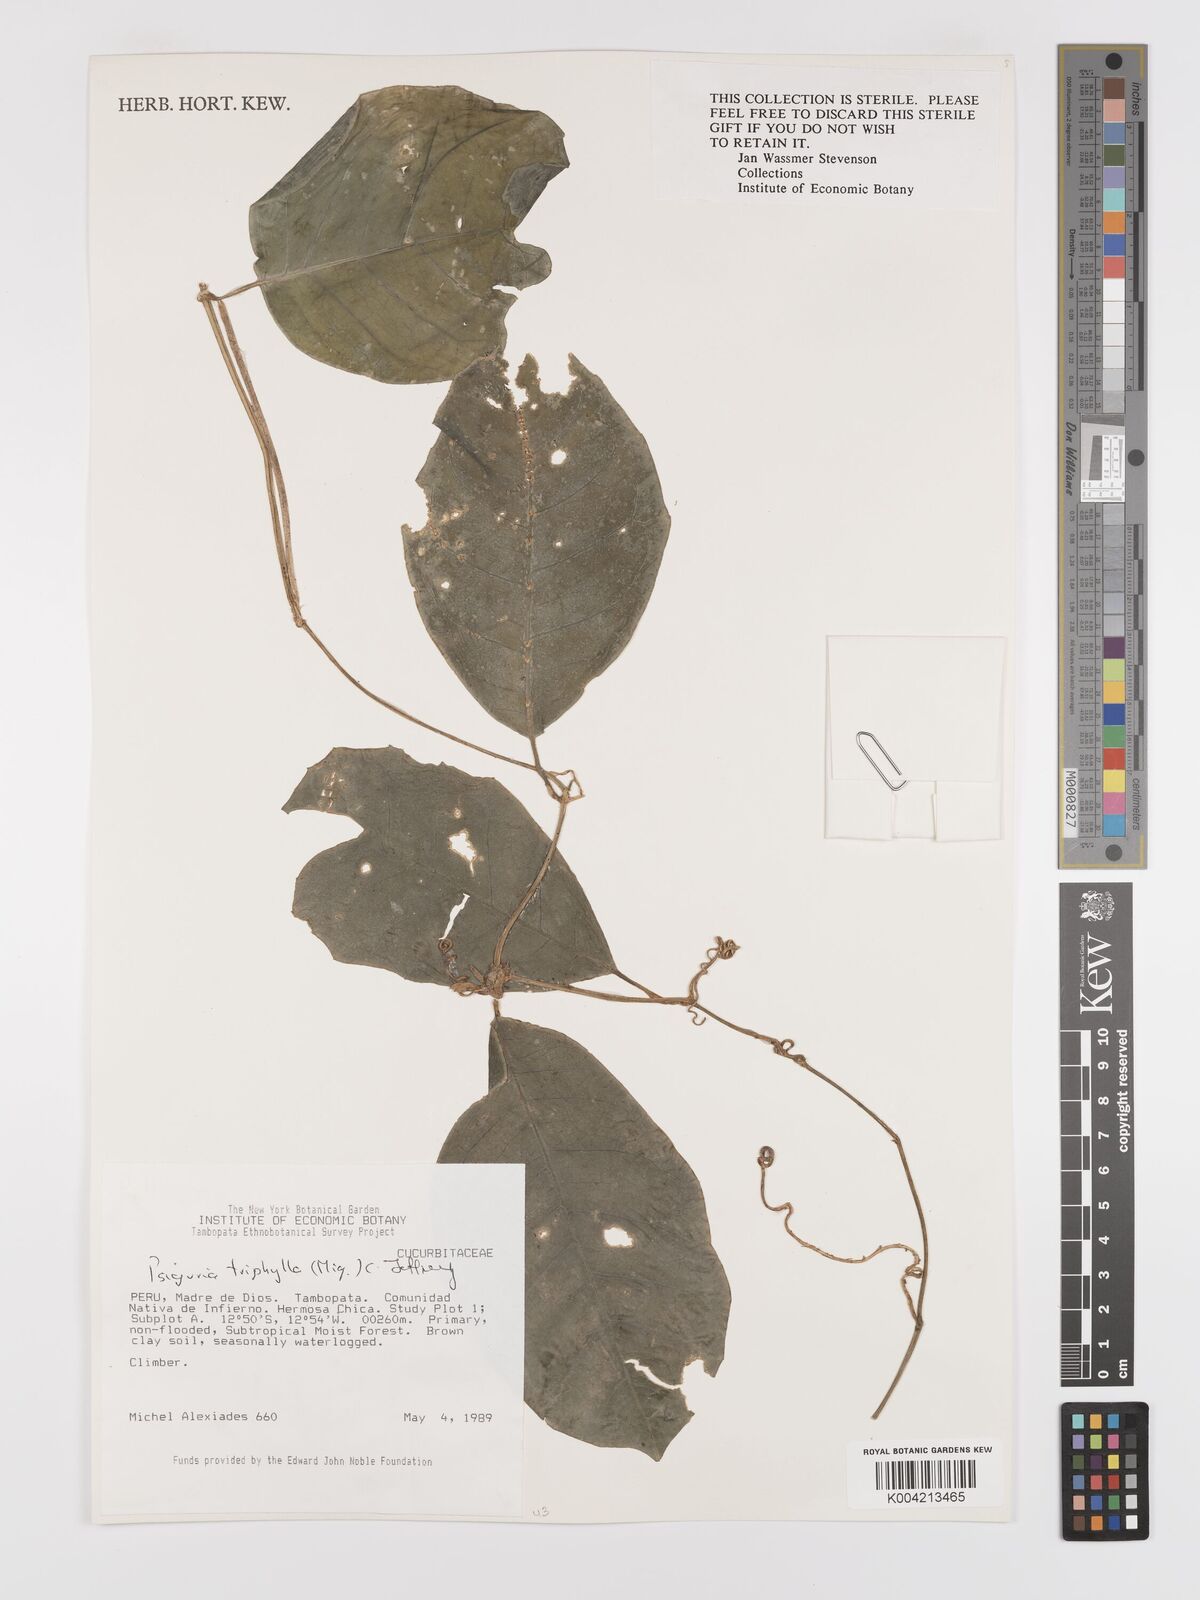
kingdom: Plantae
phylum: Tracheophyta
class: Magnoliopsida
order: Cucurbitales
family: Cucurbitaceae
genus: Psiguria
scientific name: Psiguria triphylla
